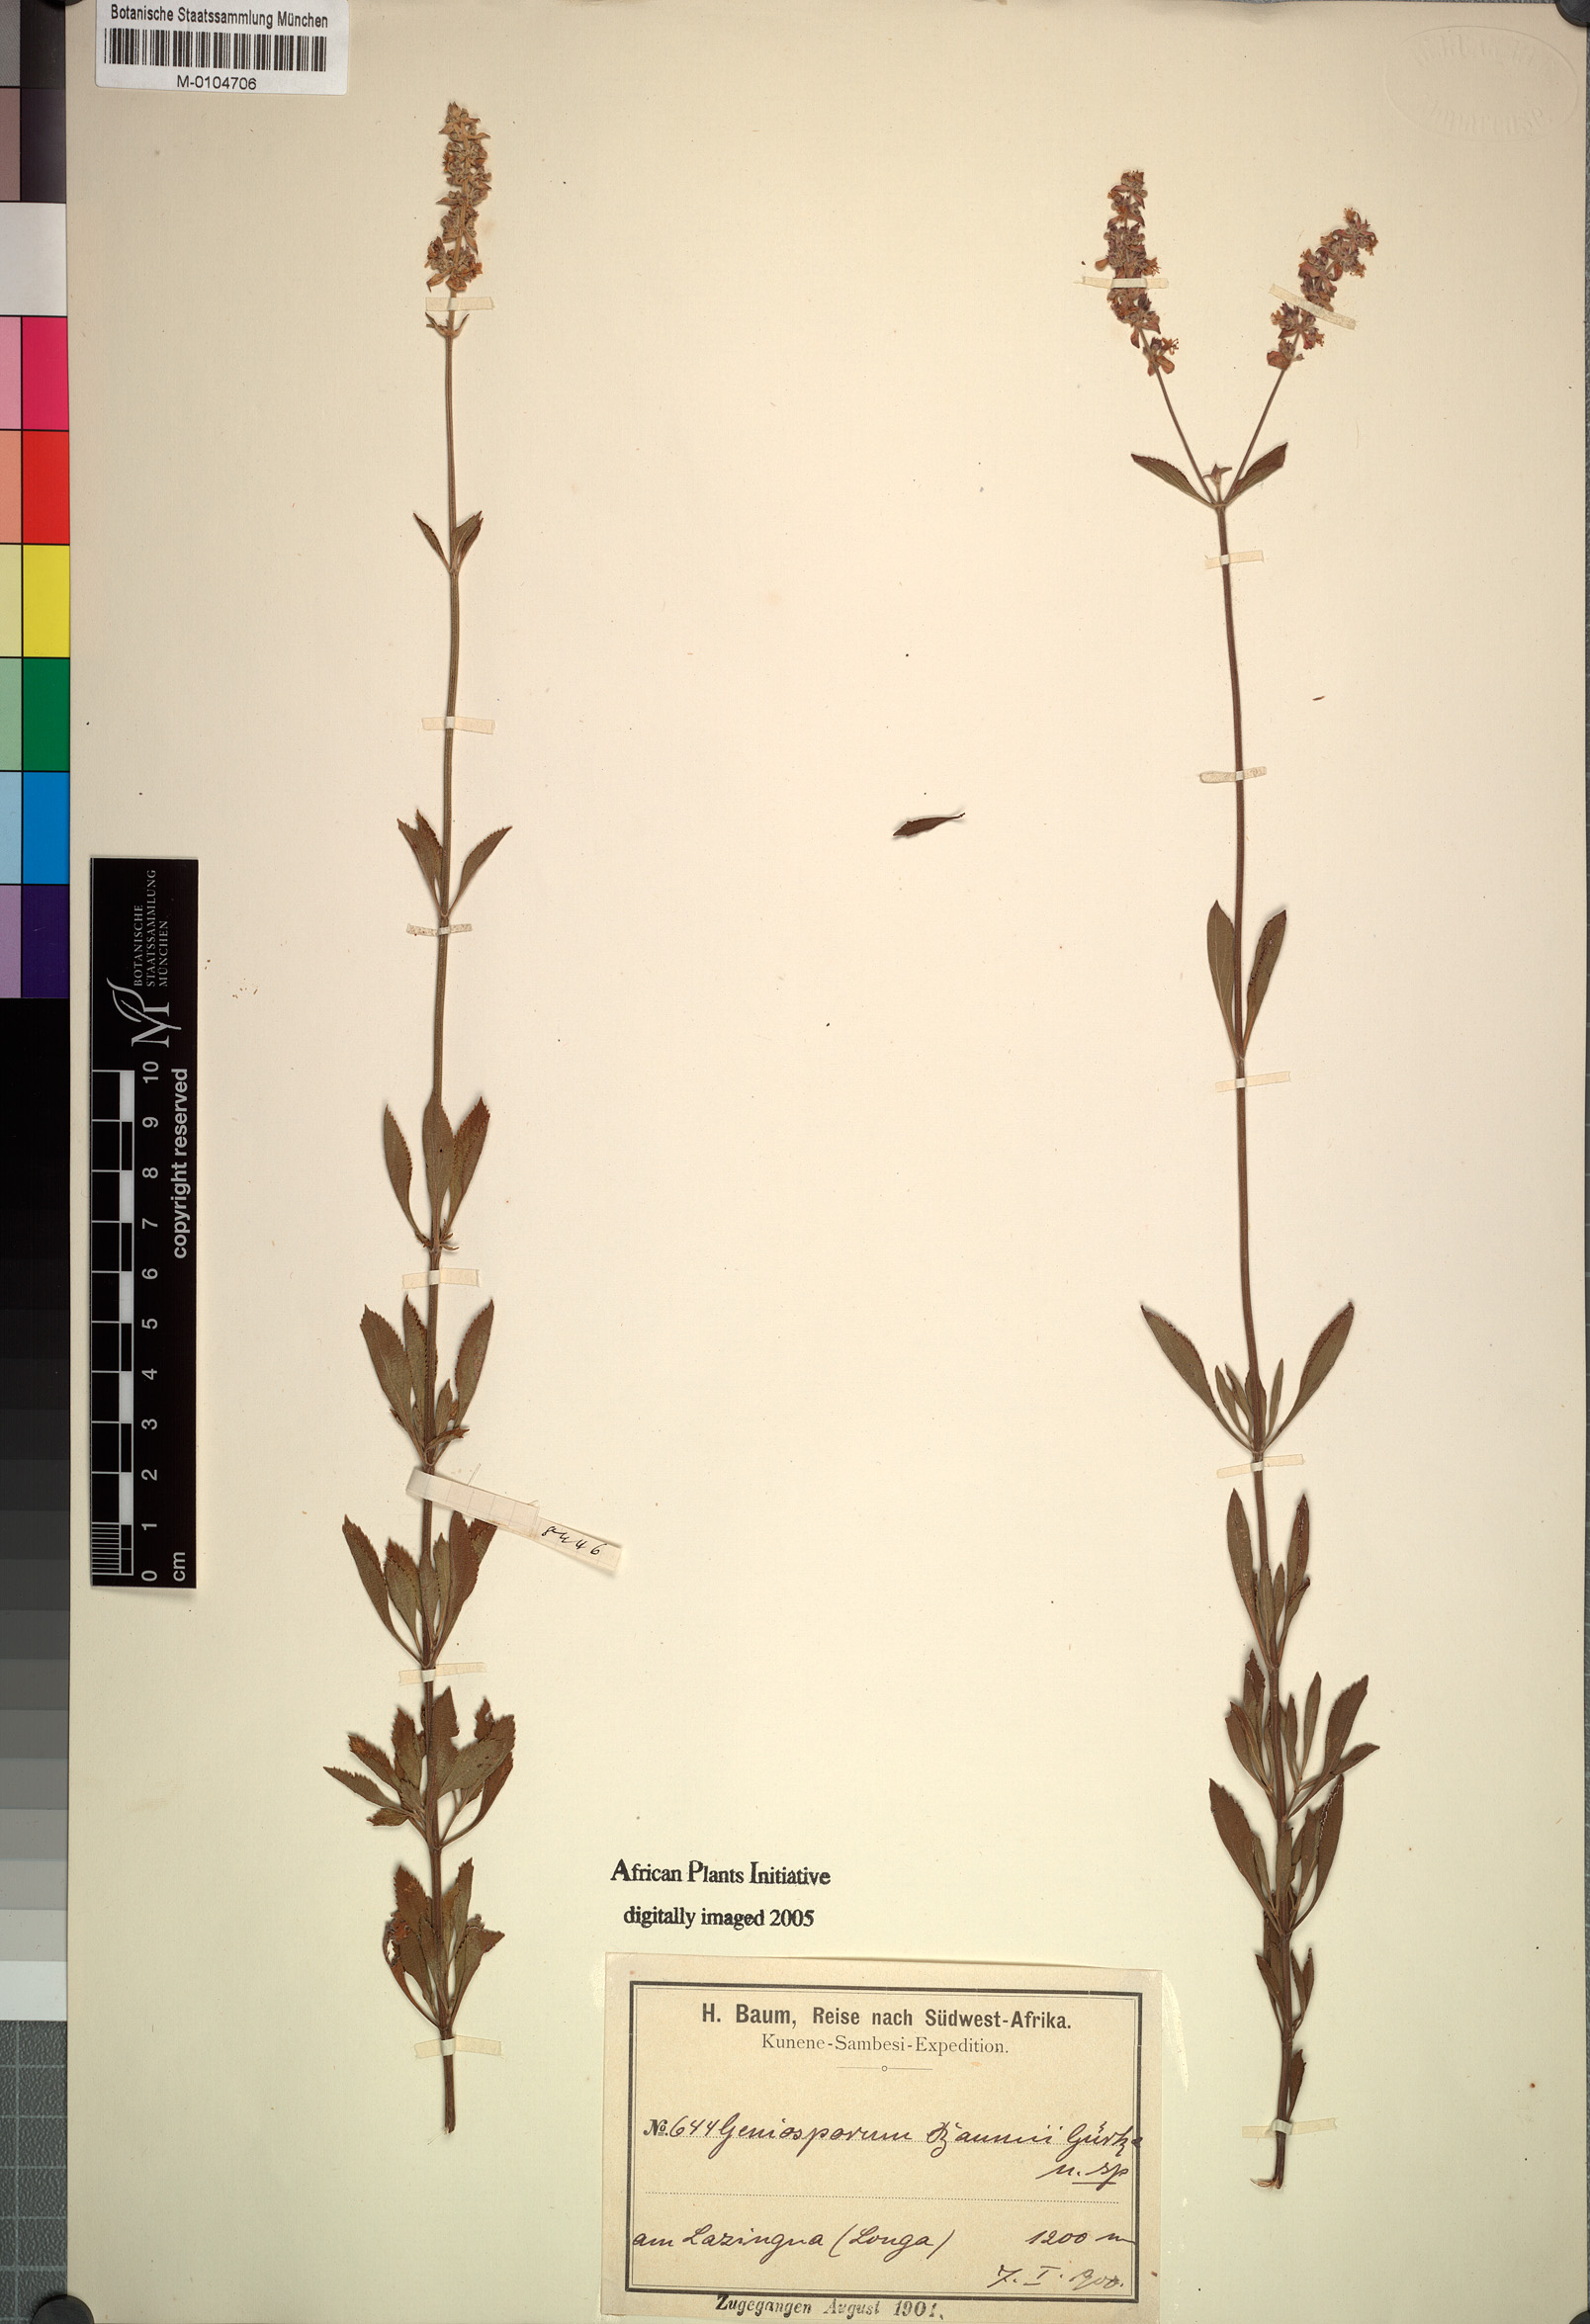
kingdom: Plantae
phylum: Tracheophyta
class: Magnoliopsida
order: Lamiales
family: Lamiaceae
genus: Platostoma
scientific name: Platostoma strictum
